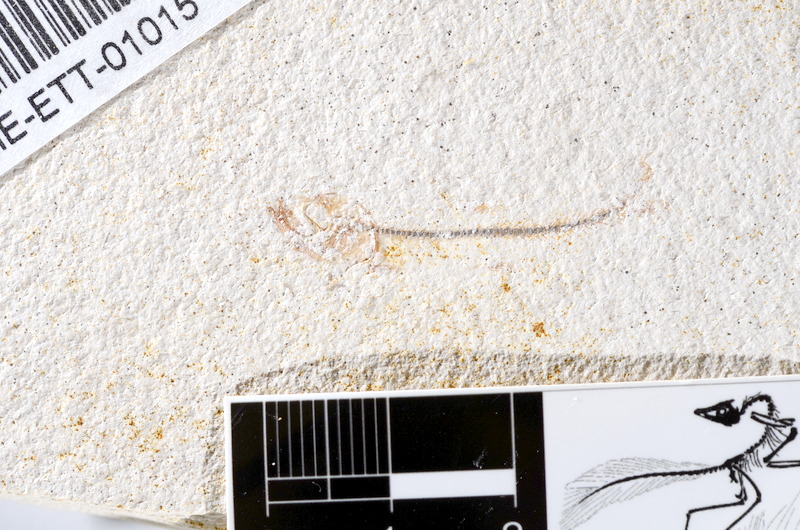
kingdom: Animalia
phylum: Chordata
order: Salmoniformes
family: Orthogonikleithridae
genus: Orthogonikleithrus
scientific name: Orthogonikleithrus hoelli
